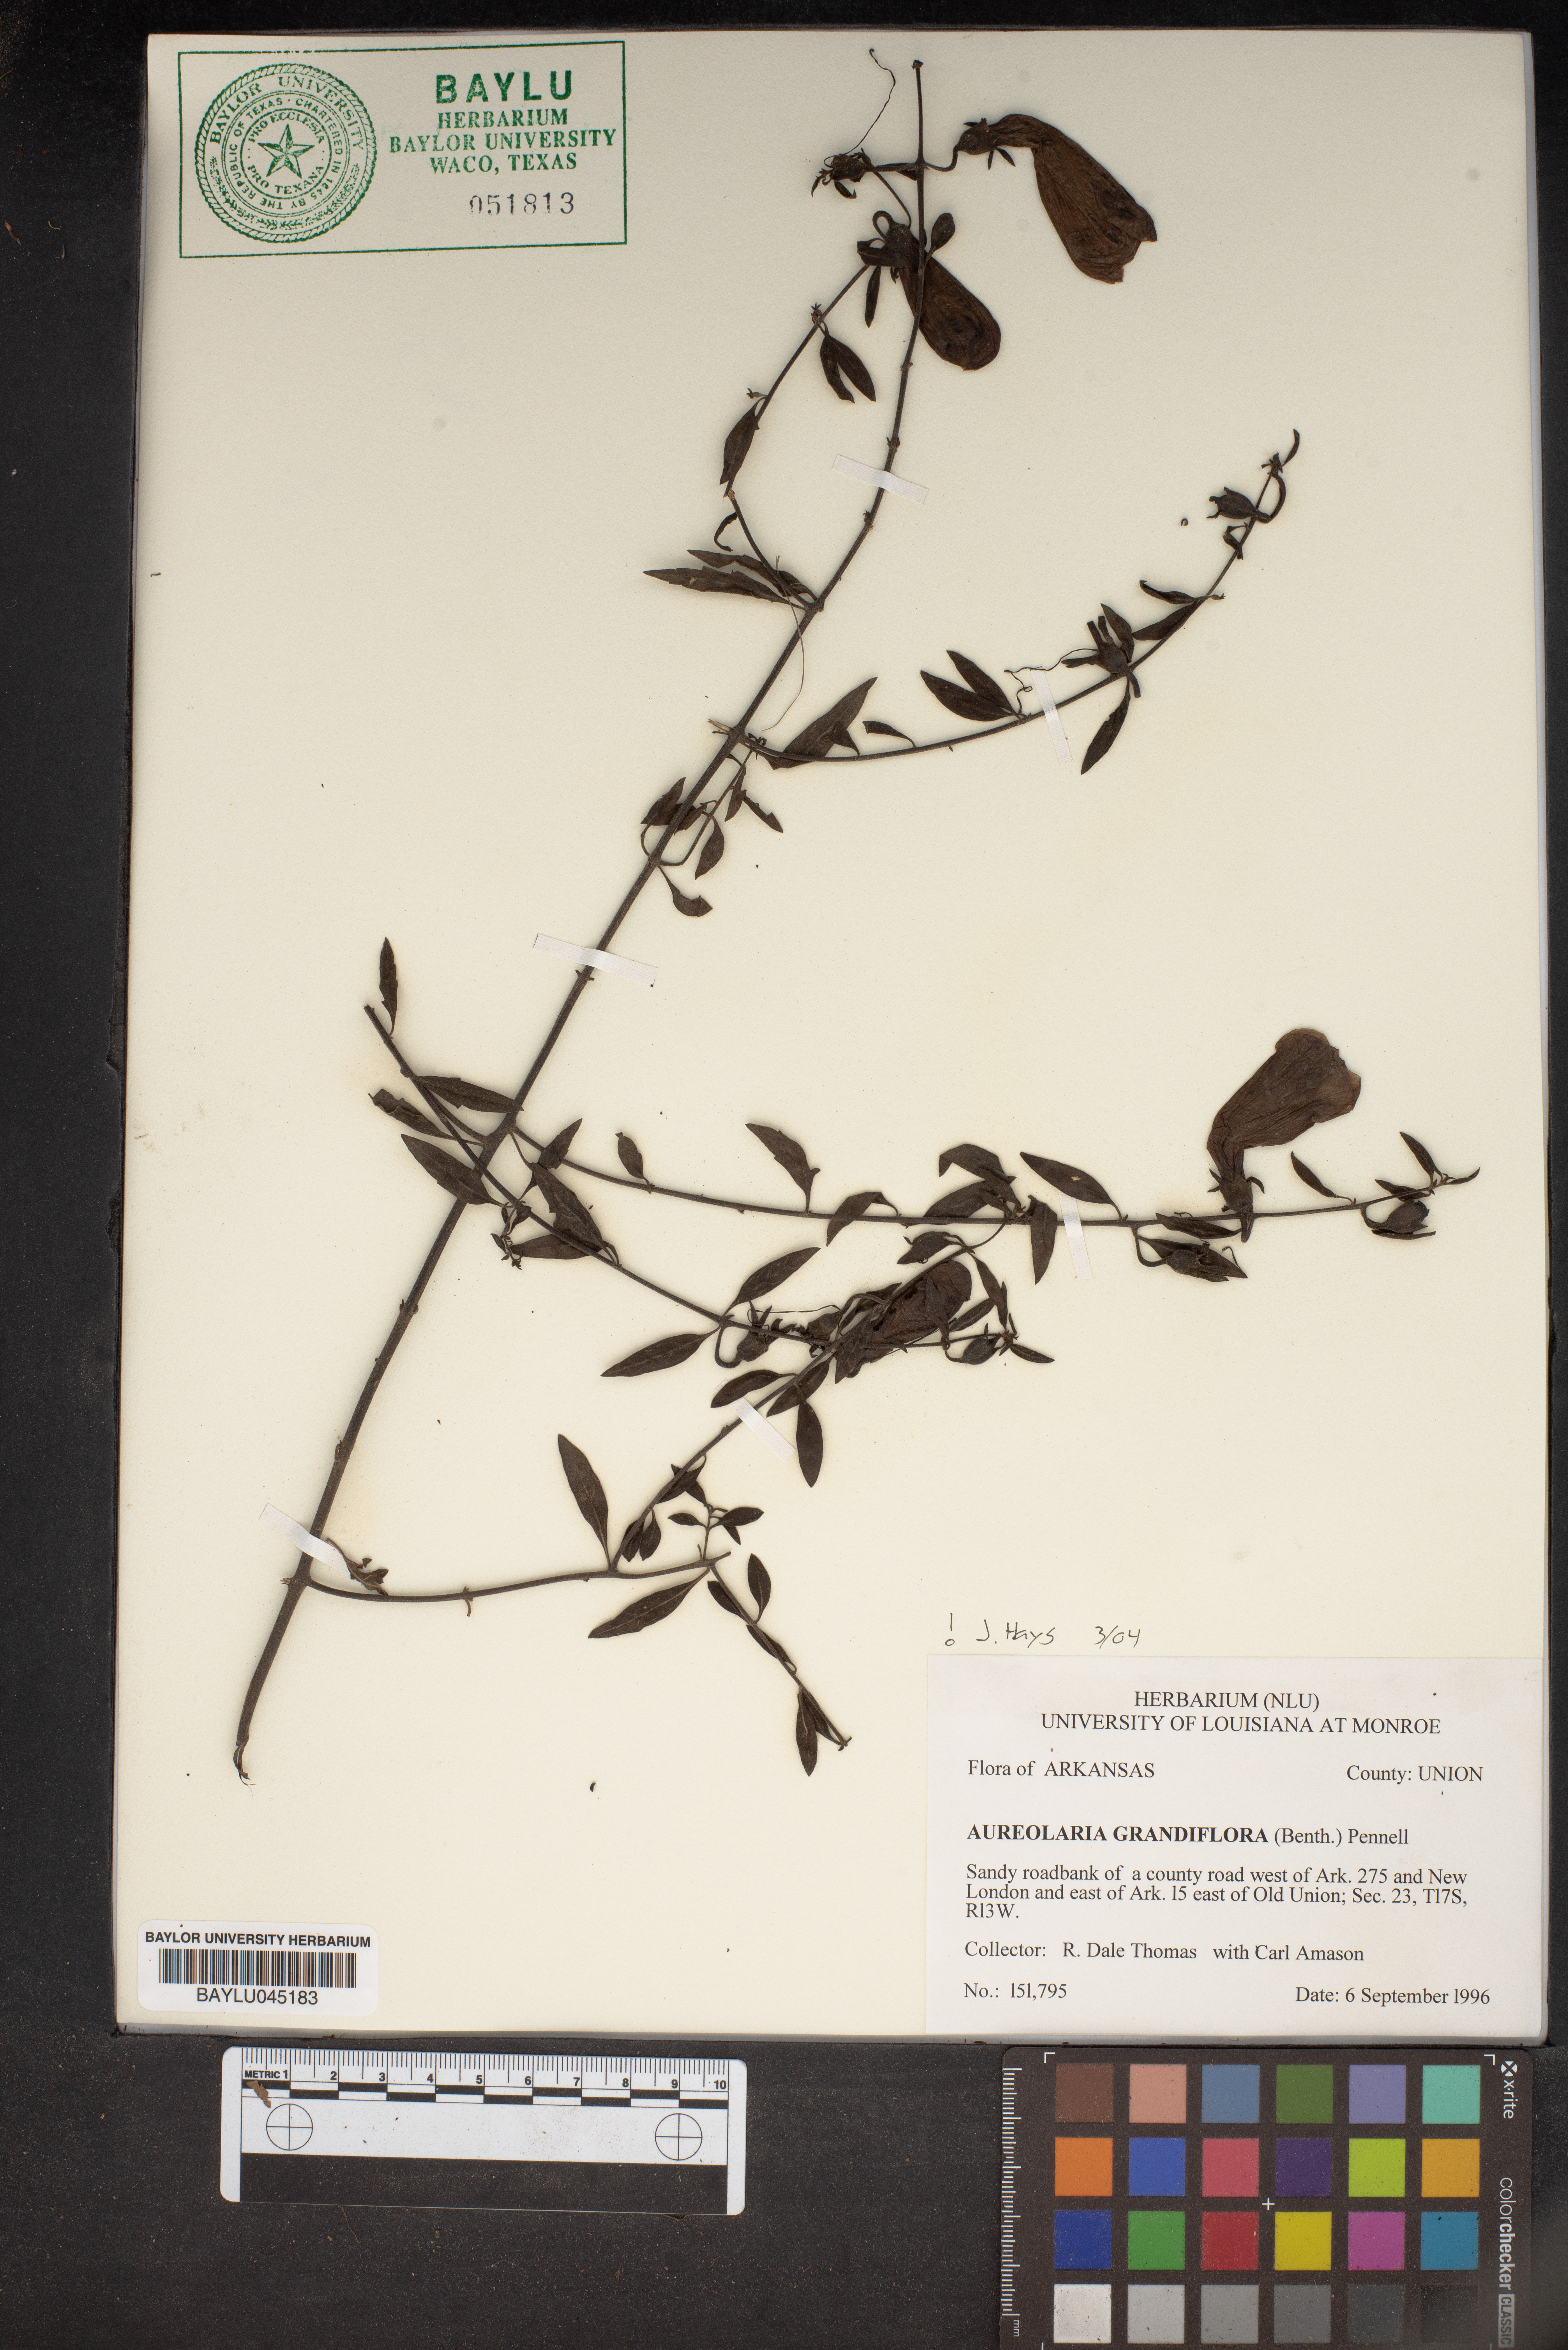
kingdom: Plantae
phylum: Tracheophyta
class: Magnoliopsida
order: Lamiales
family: Orobanchaceae
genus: Aureolaria
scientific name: Aureolaria grandiflora
